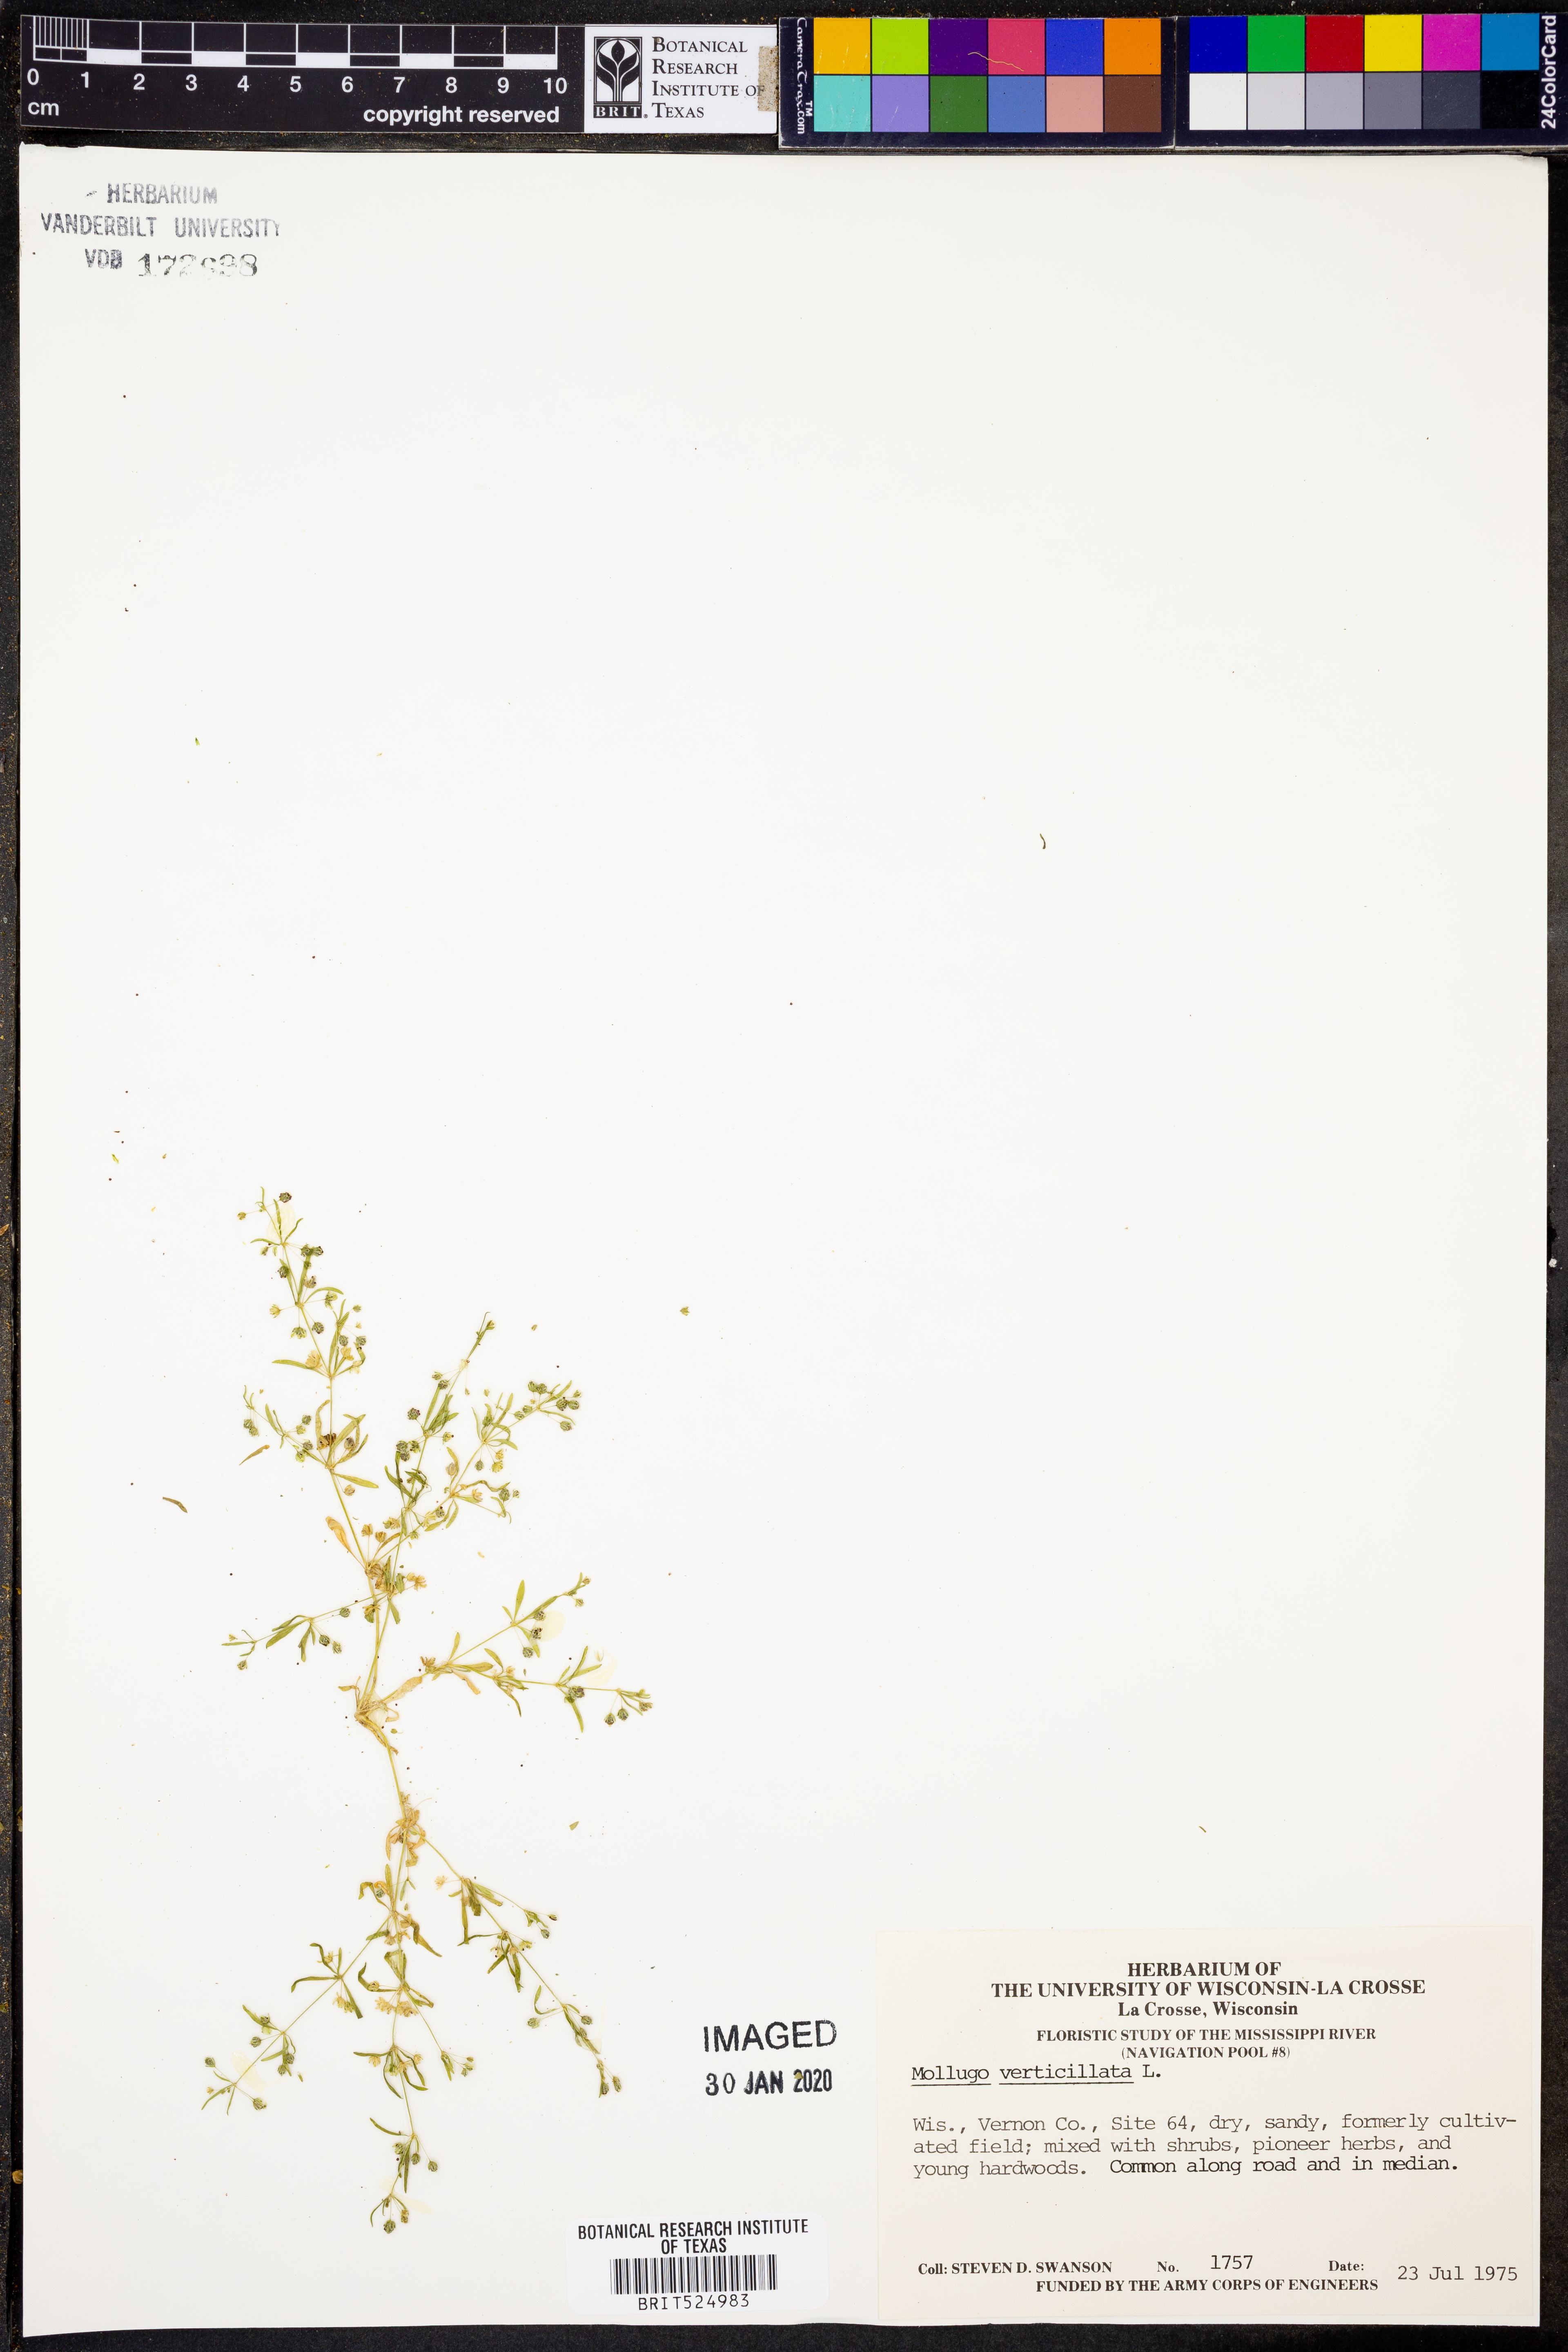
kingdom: Plantae
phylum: Tracheophyta
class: Magnoliopsida
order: Caryophyllales
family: Molluginaceae
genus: Mollugo
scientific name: Mollugo verticillata
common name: Green carpetweed
